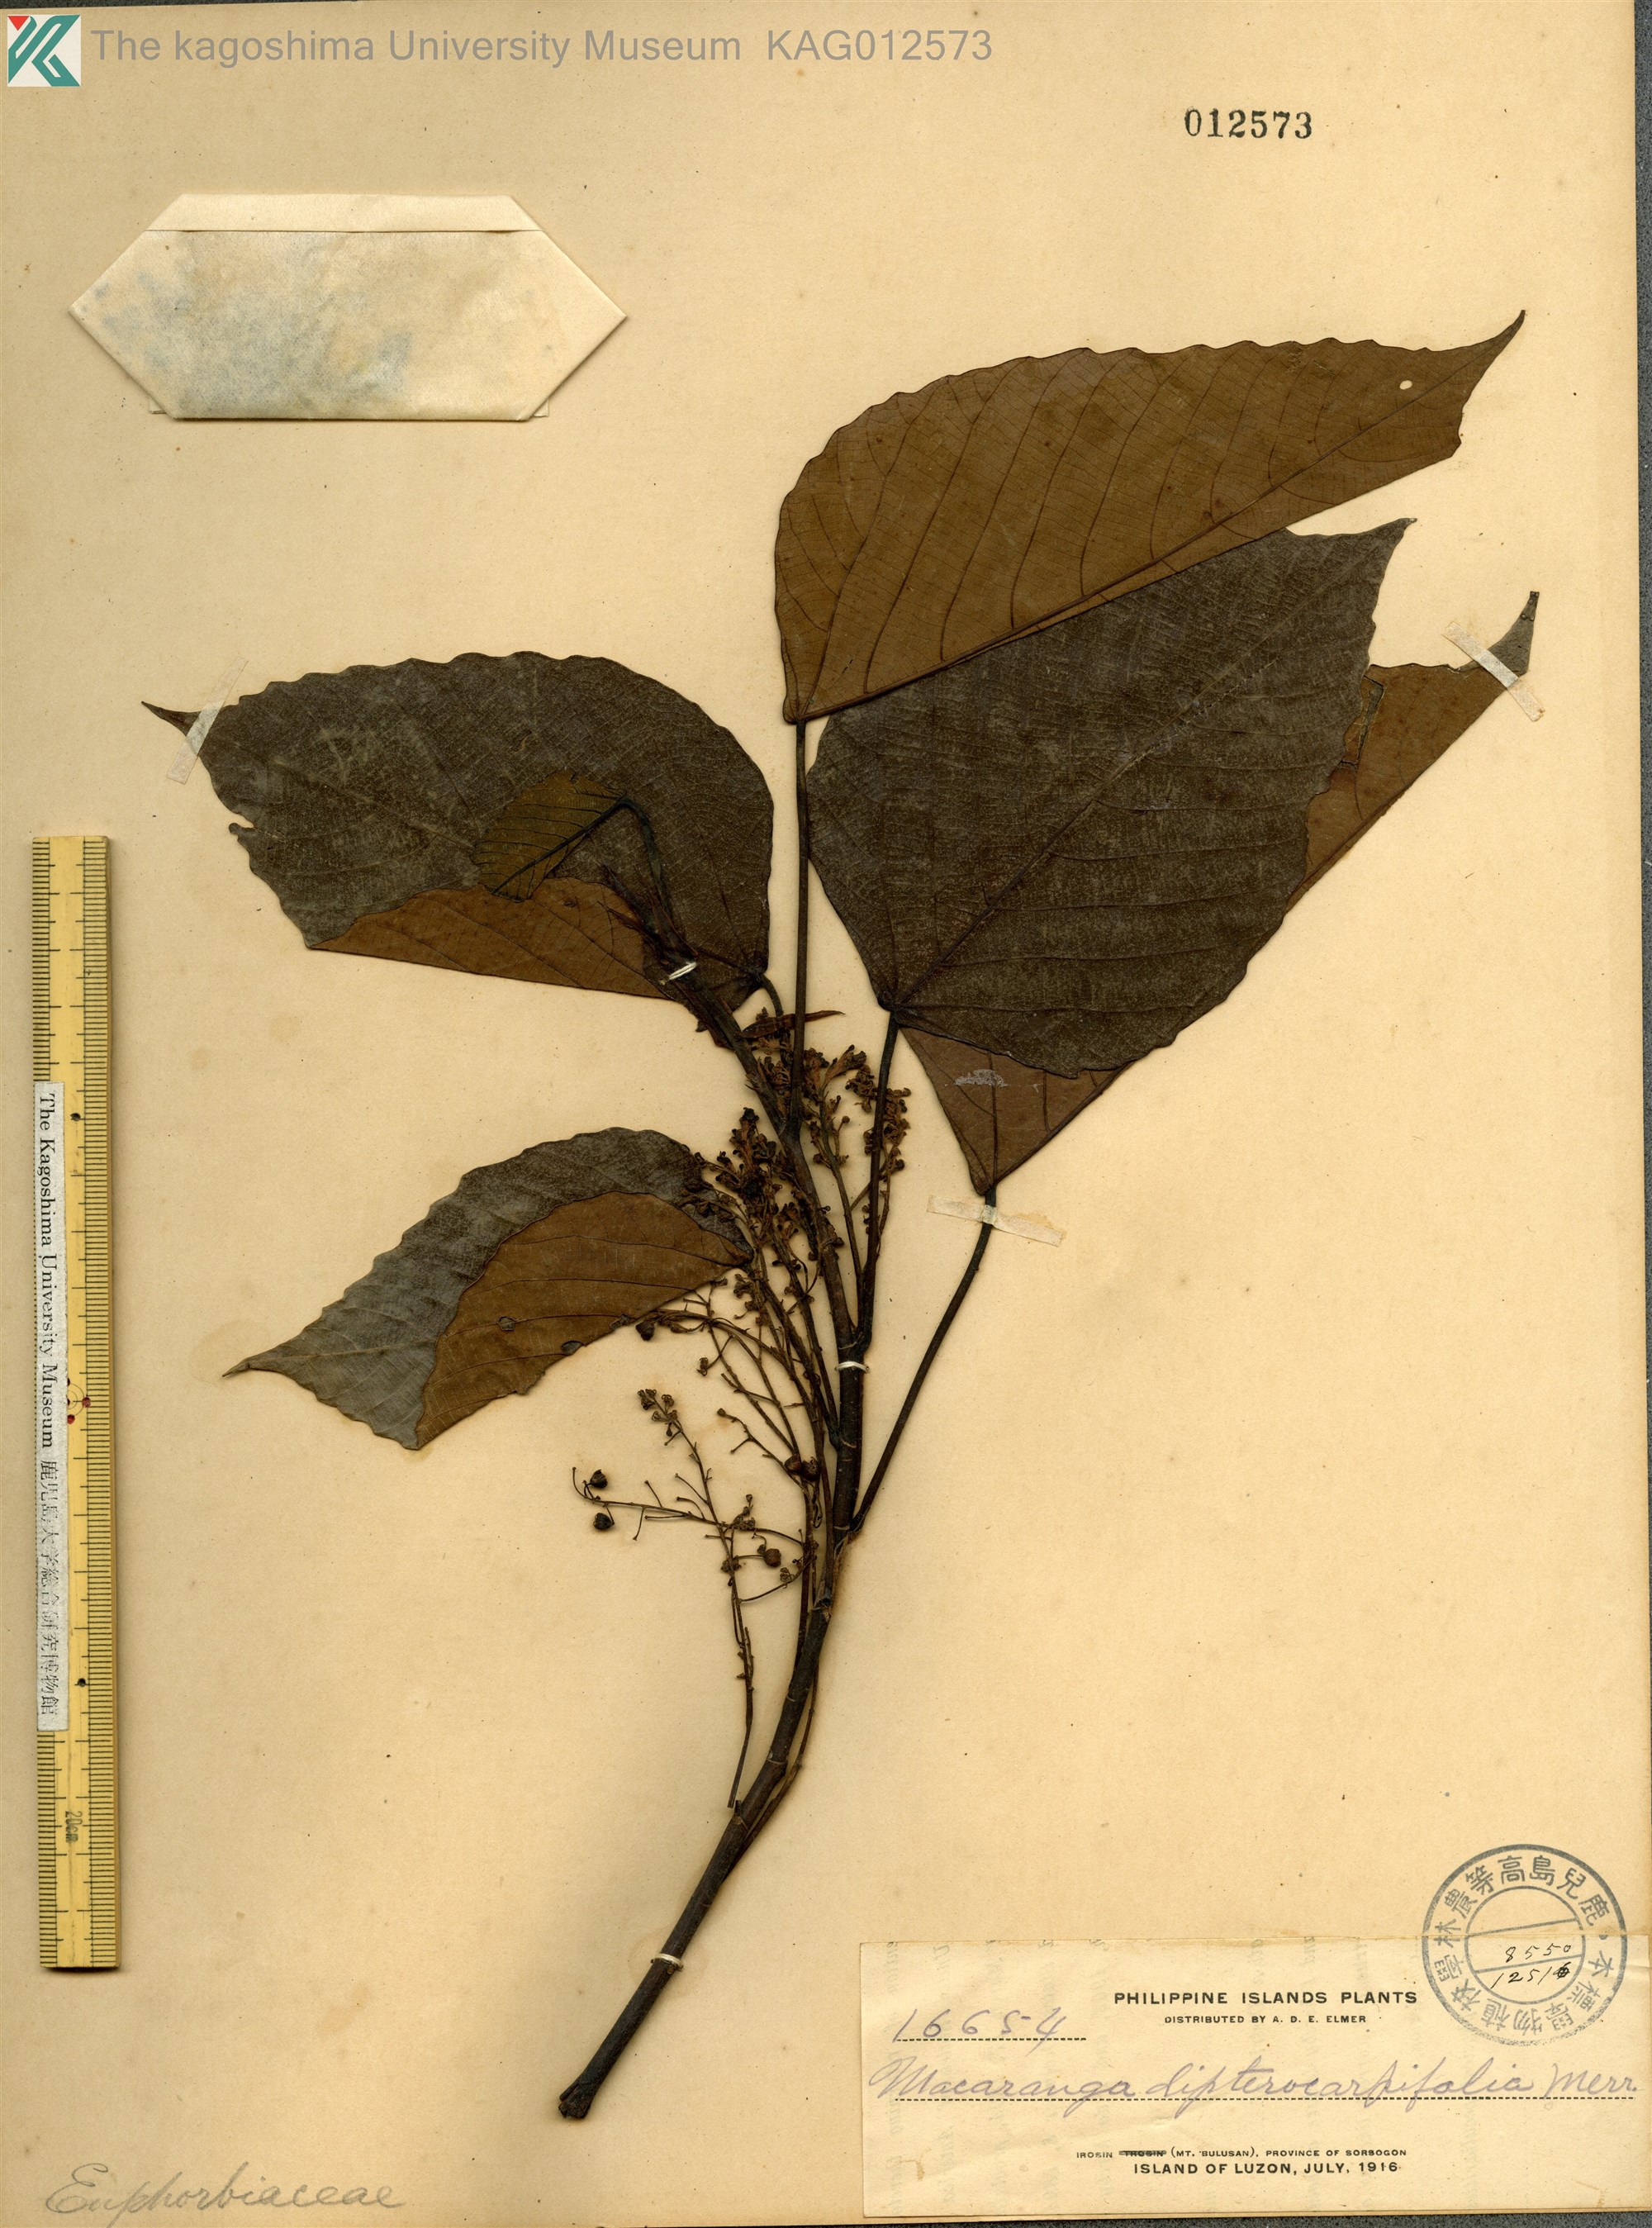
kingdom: Plantae
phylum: Tracheophyta
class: Magnoliopsida
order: Malpighiales
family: Euphorbiaceae
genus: Macaranga
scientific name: Macaranga sinensis
